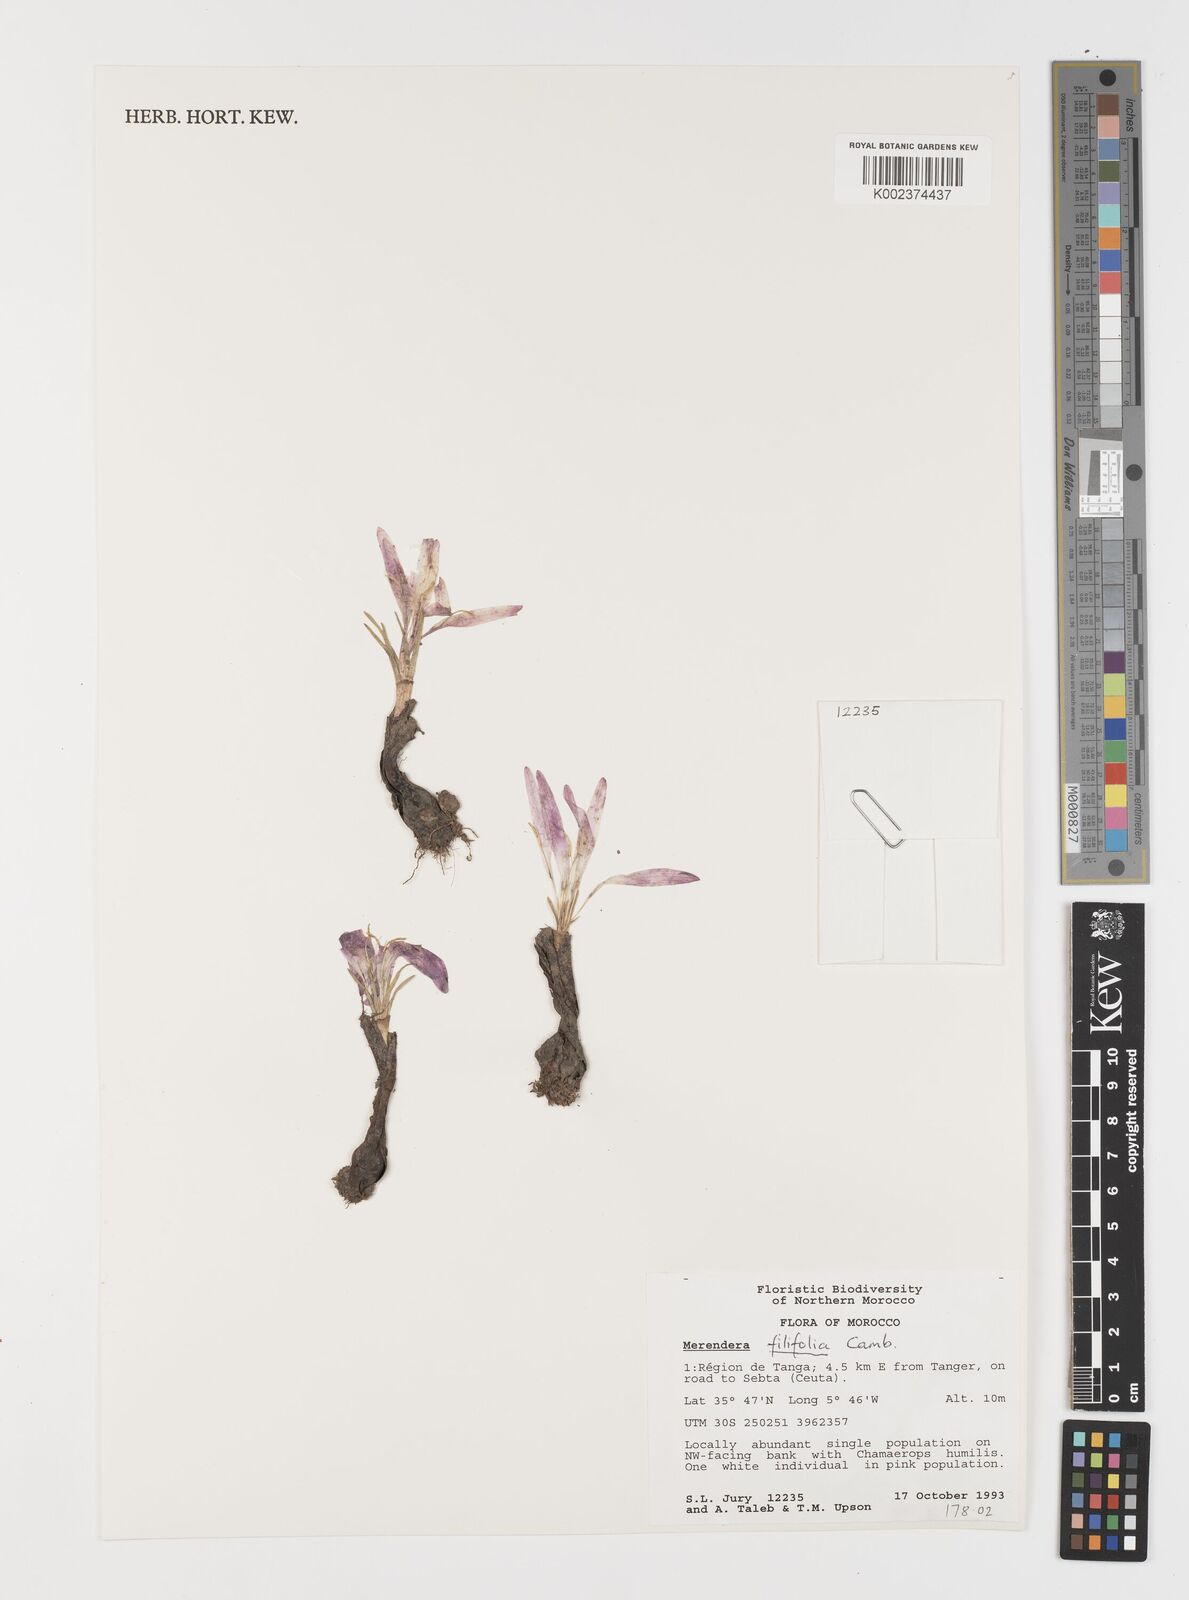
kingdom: Plantae
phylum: Tracheophyta
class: Liliopsida
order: Liliales
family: Colchicaceae
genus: Colchicum
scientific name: Colchicum filifolium
